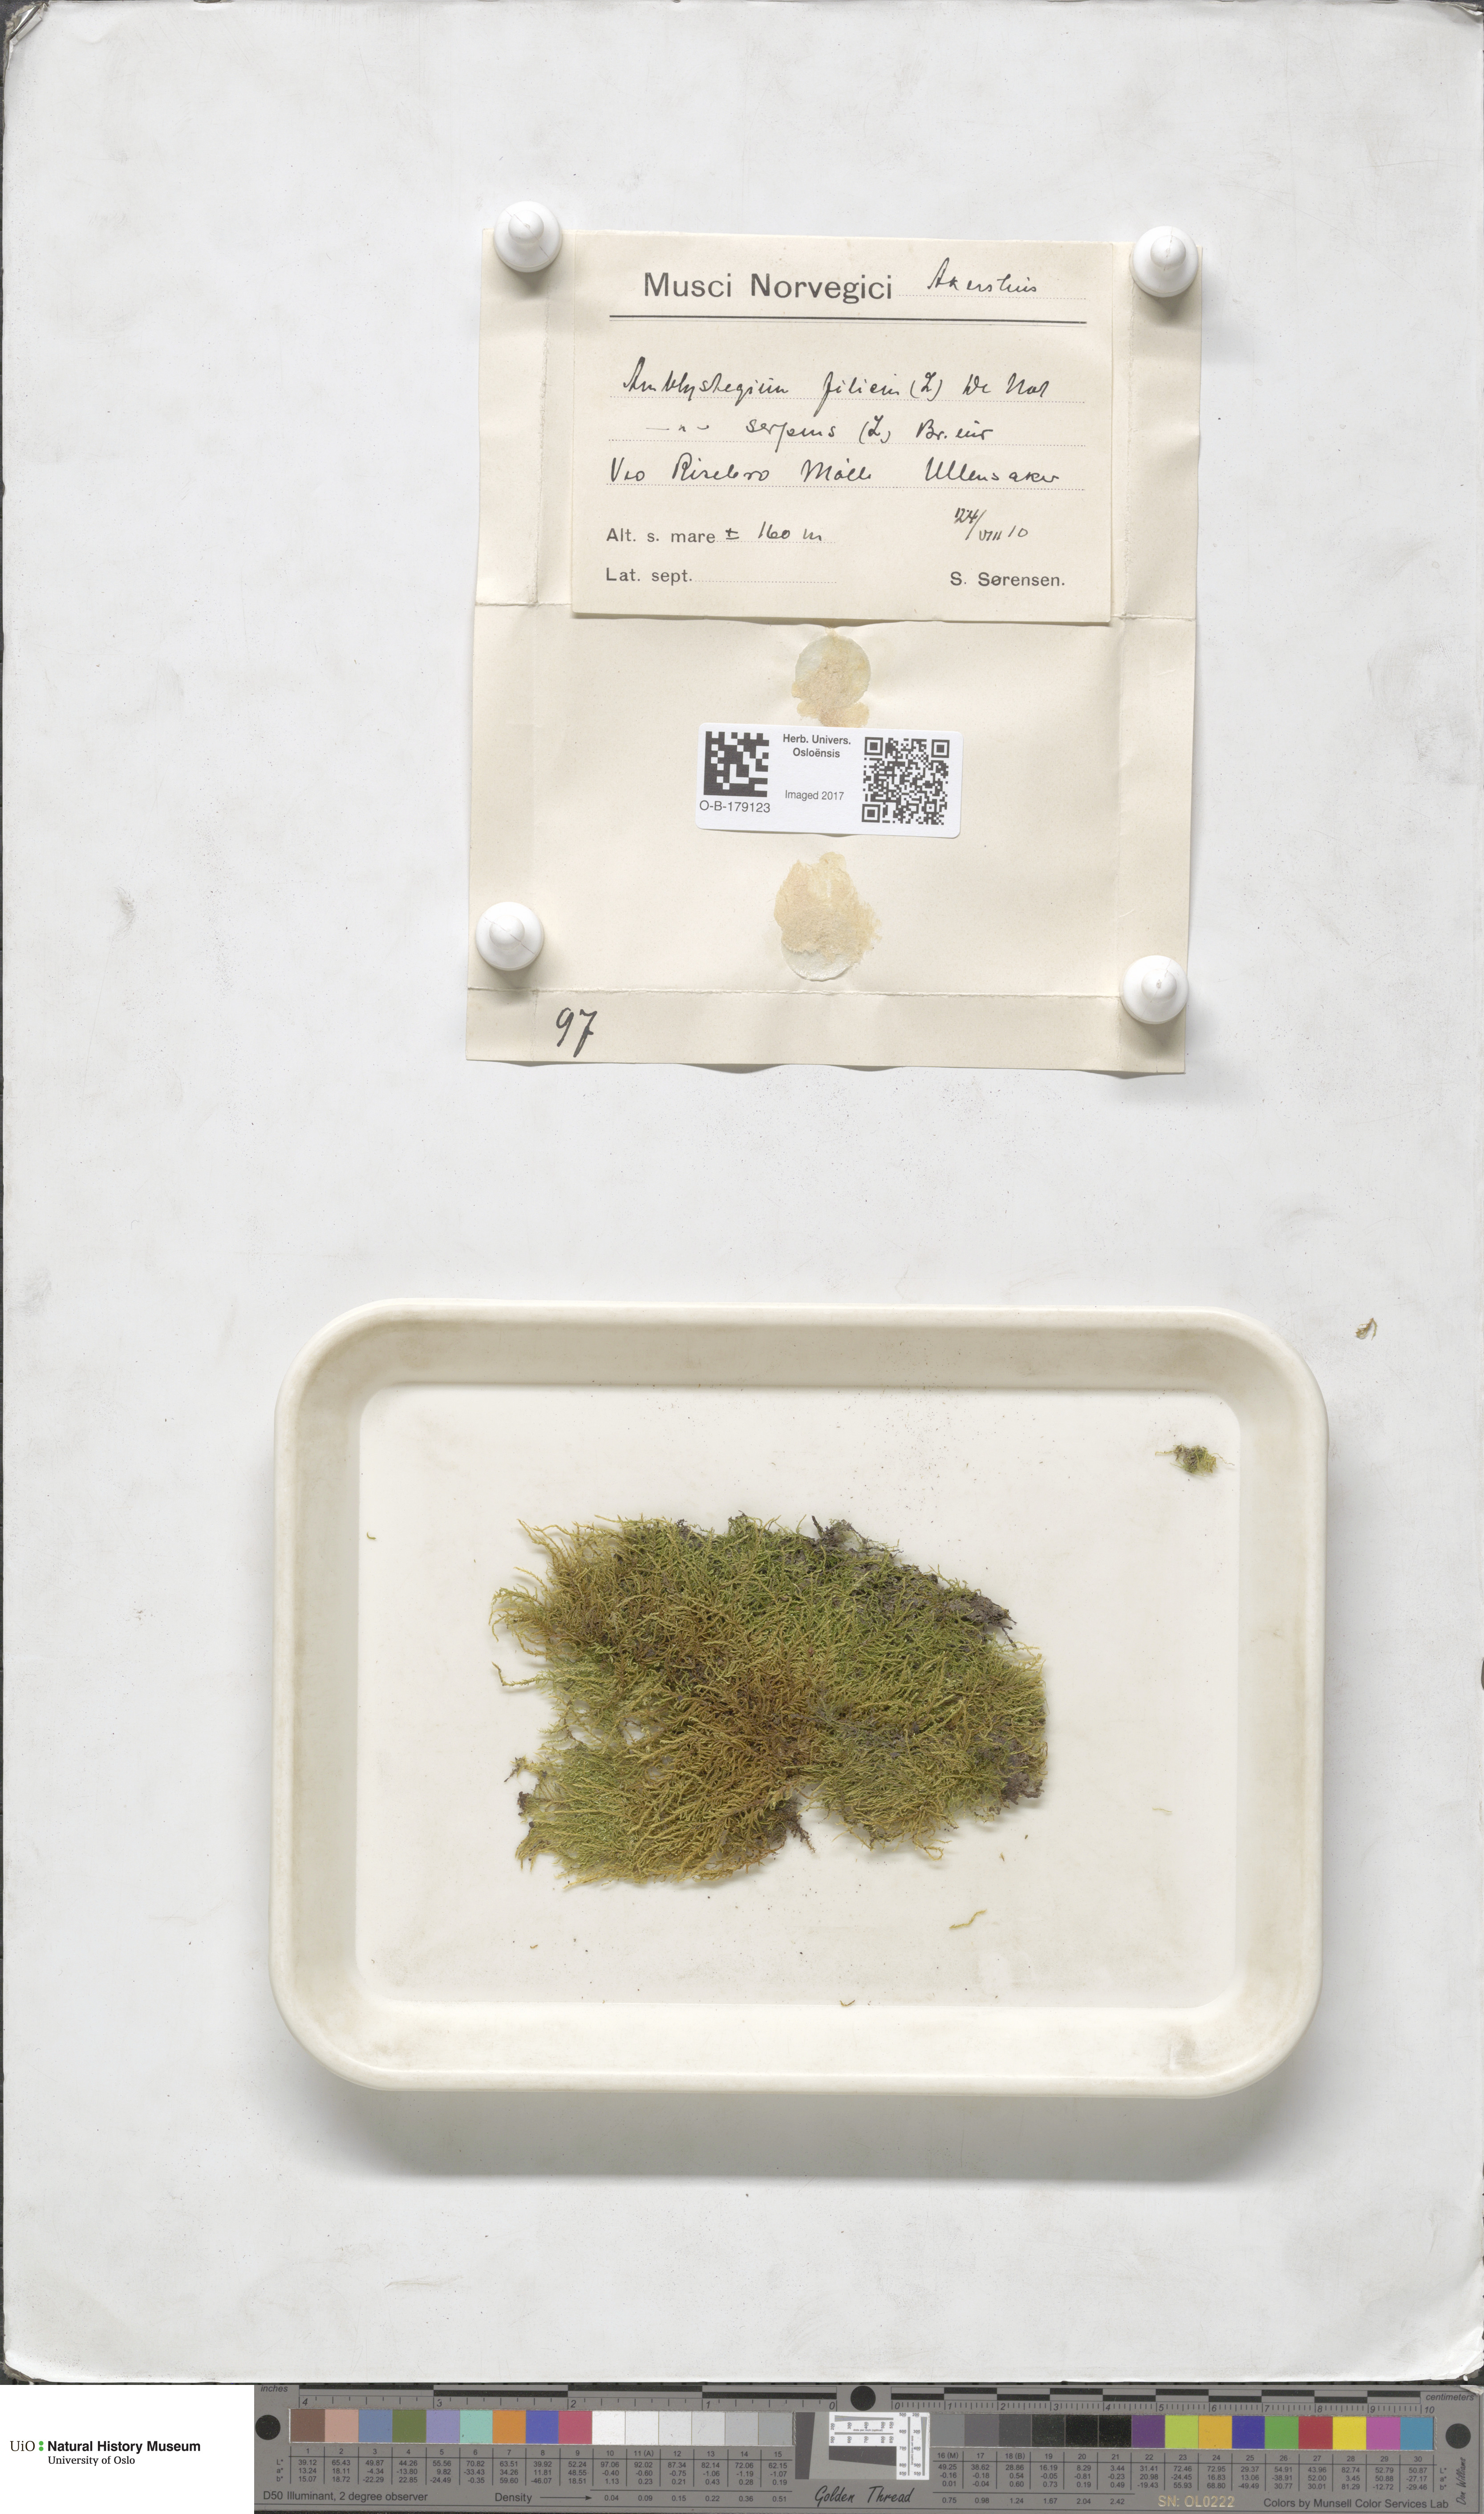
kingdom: Plantae
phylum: Bryophyta
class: Bryopsida
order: Hypnales
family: Amblystegiaceae
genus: Cratoneuron
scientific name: Cratoneuron filicinum
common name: Fern-leaved hook moss
